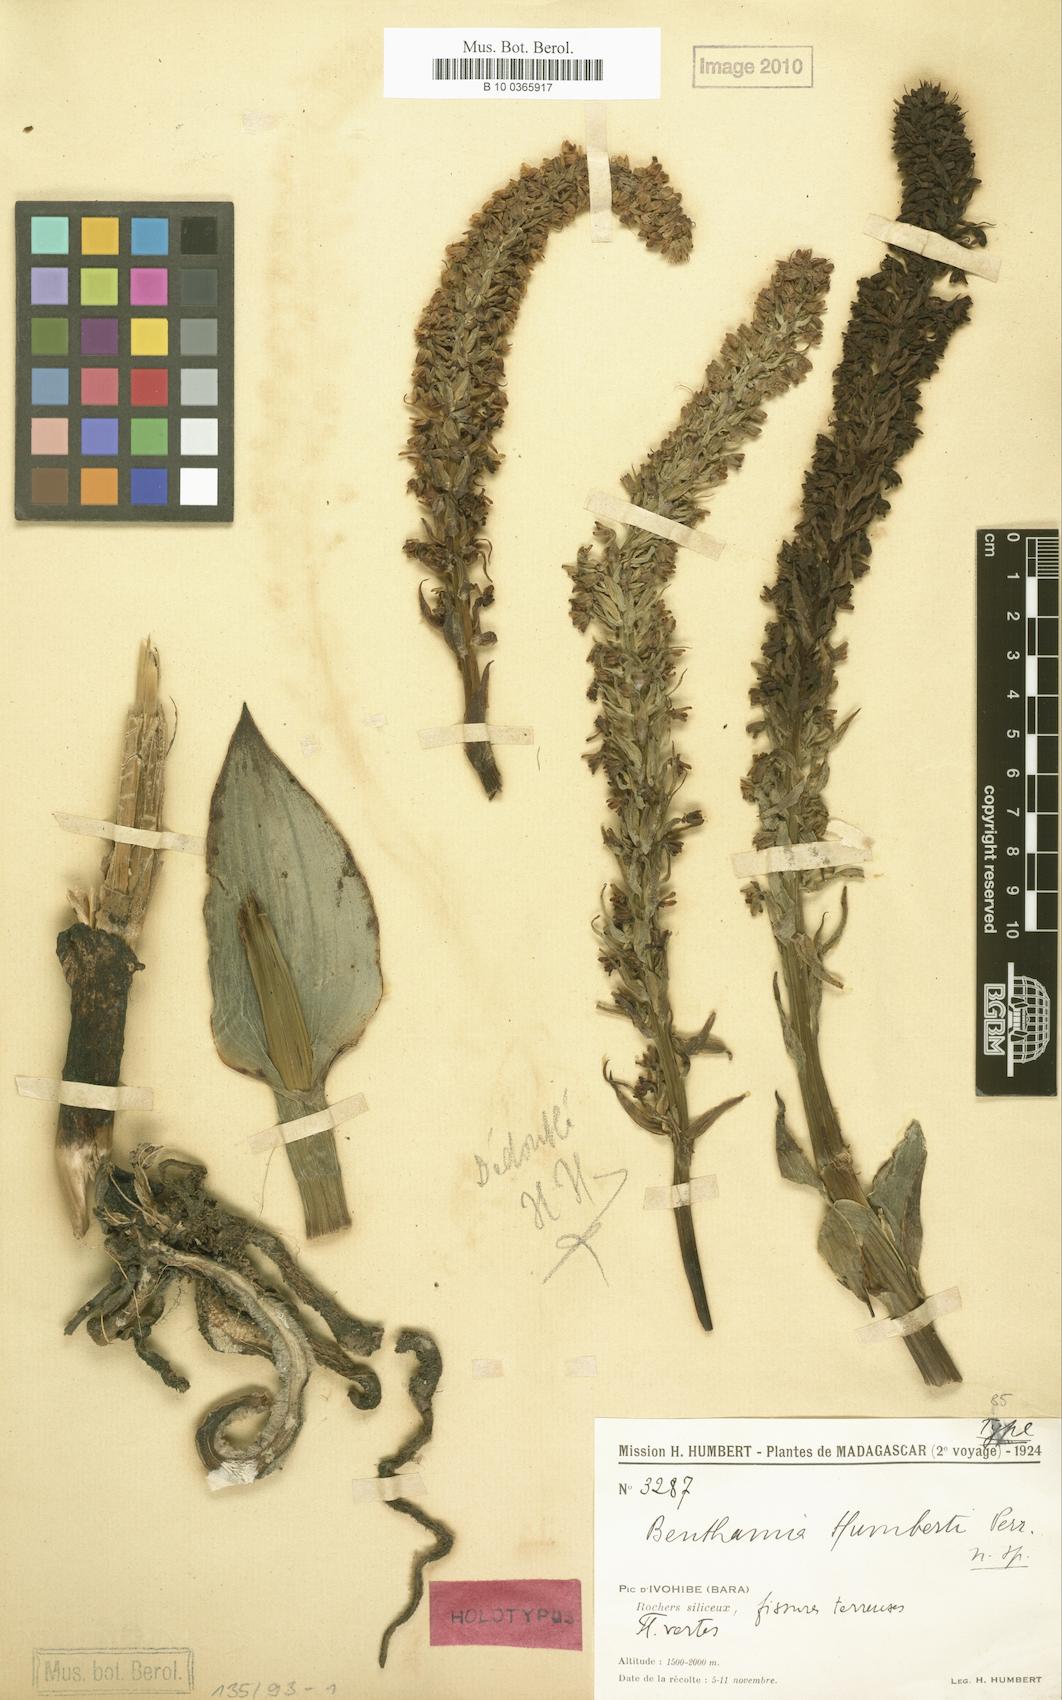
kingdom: Plantae
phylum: Tracheophyta
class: Liliopsida
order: Asparagales
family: Orchidaceae
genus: Benthamia
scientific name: Benthamia humbertii
